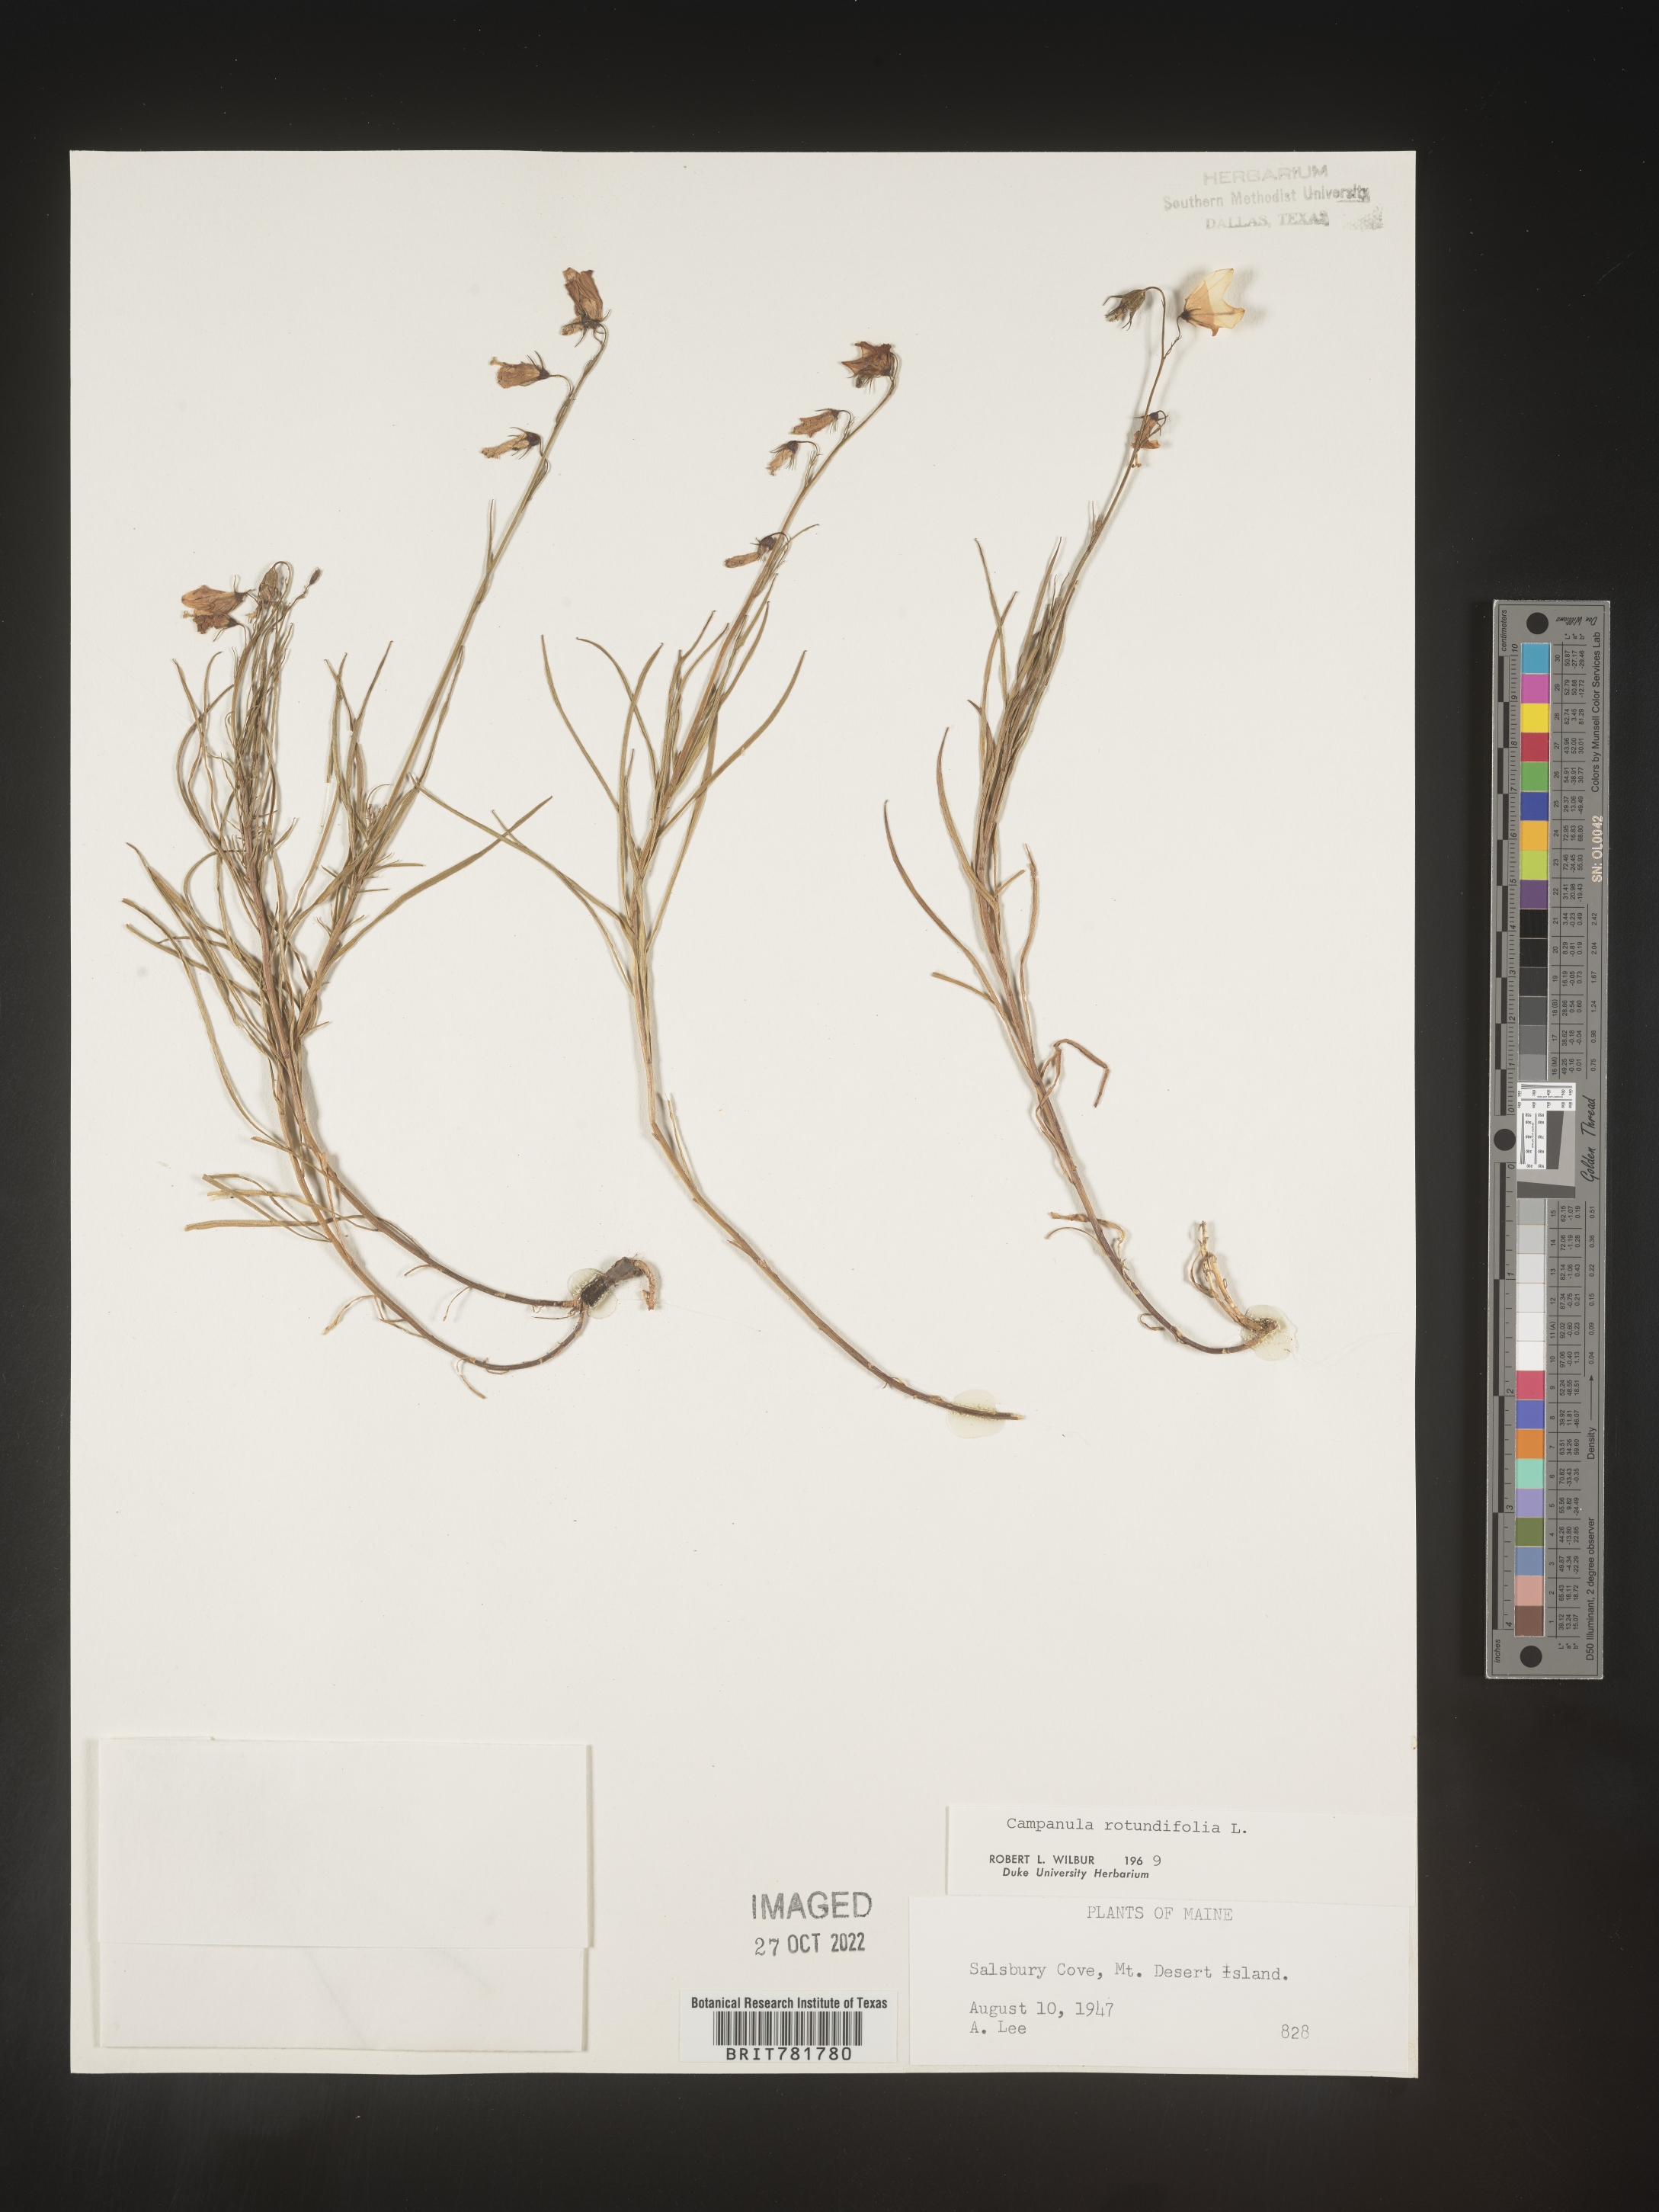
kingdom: Plantae
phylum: Tracheophyta
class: Magnoliopsida
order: Asterales
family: Campanulaceae
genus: Campanula
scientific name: Campanula rotundifolia
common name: Harebell
